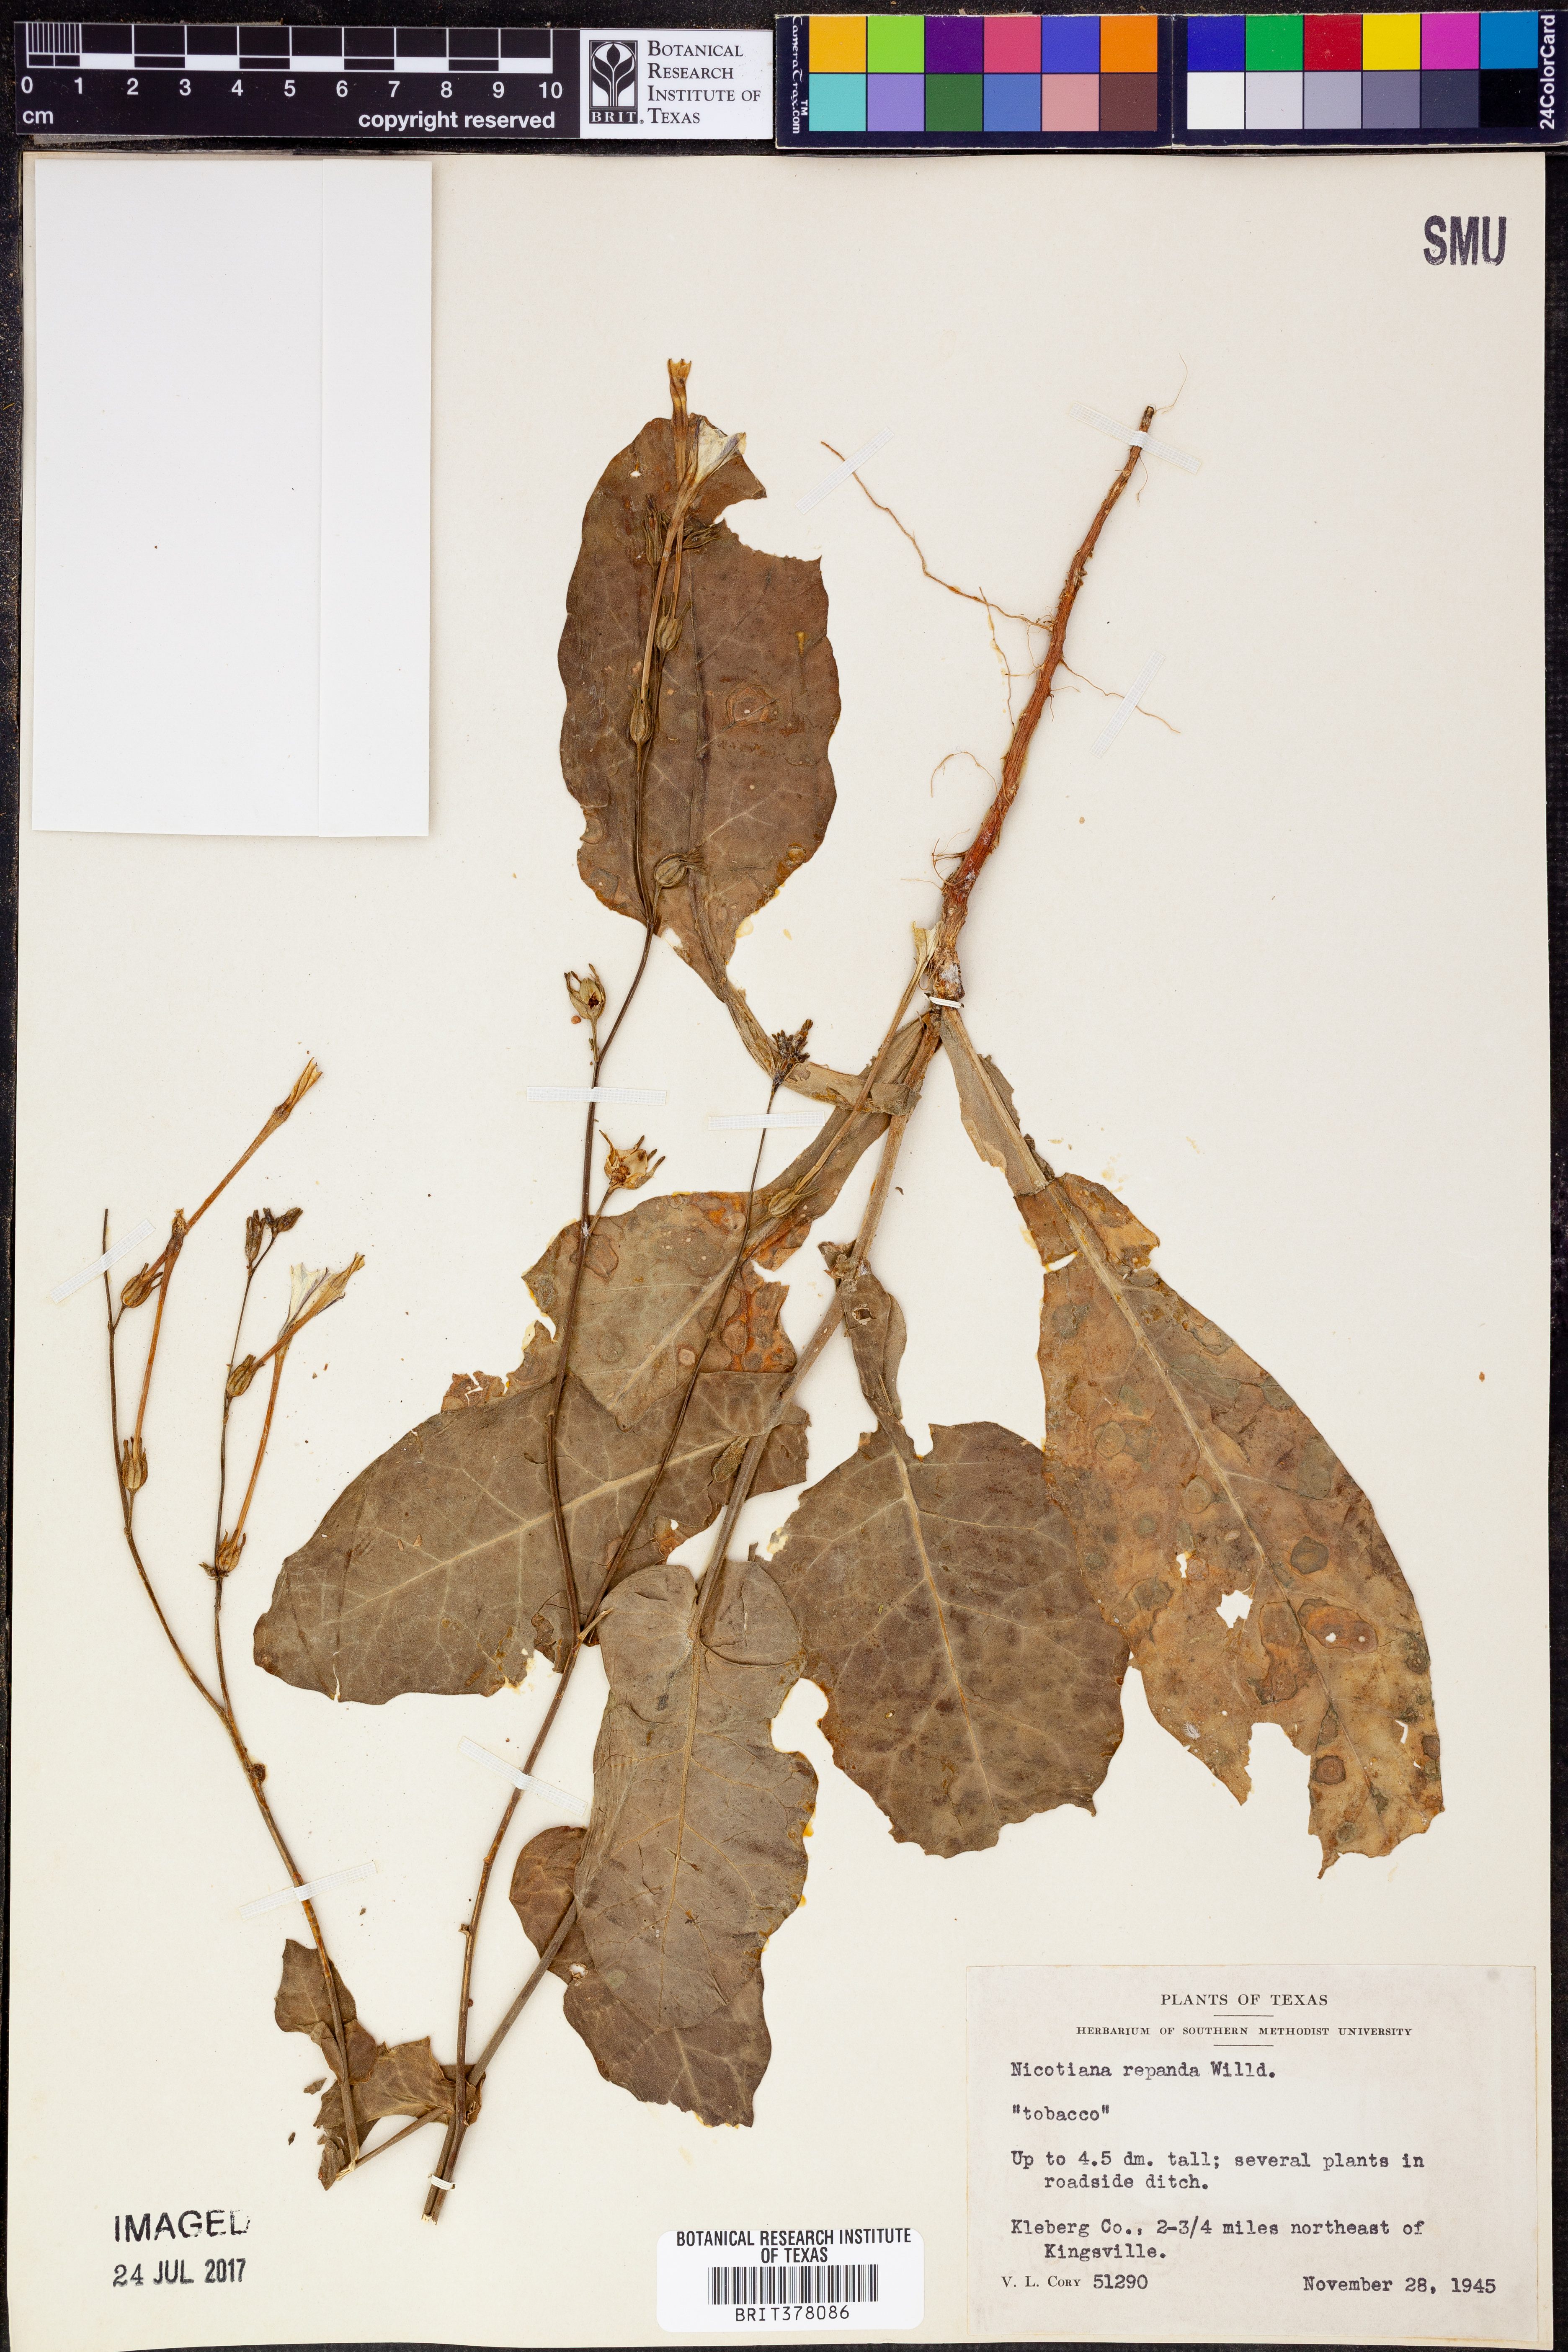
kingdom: Plantae
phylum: Tracheophyta
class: Magnoliopsida
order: Solanales
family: Solanaceae
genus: Nicotiana
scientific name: Nicotiana repanda
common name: Fiddle-leaf tobacco
